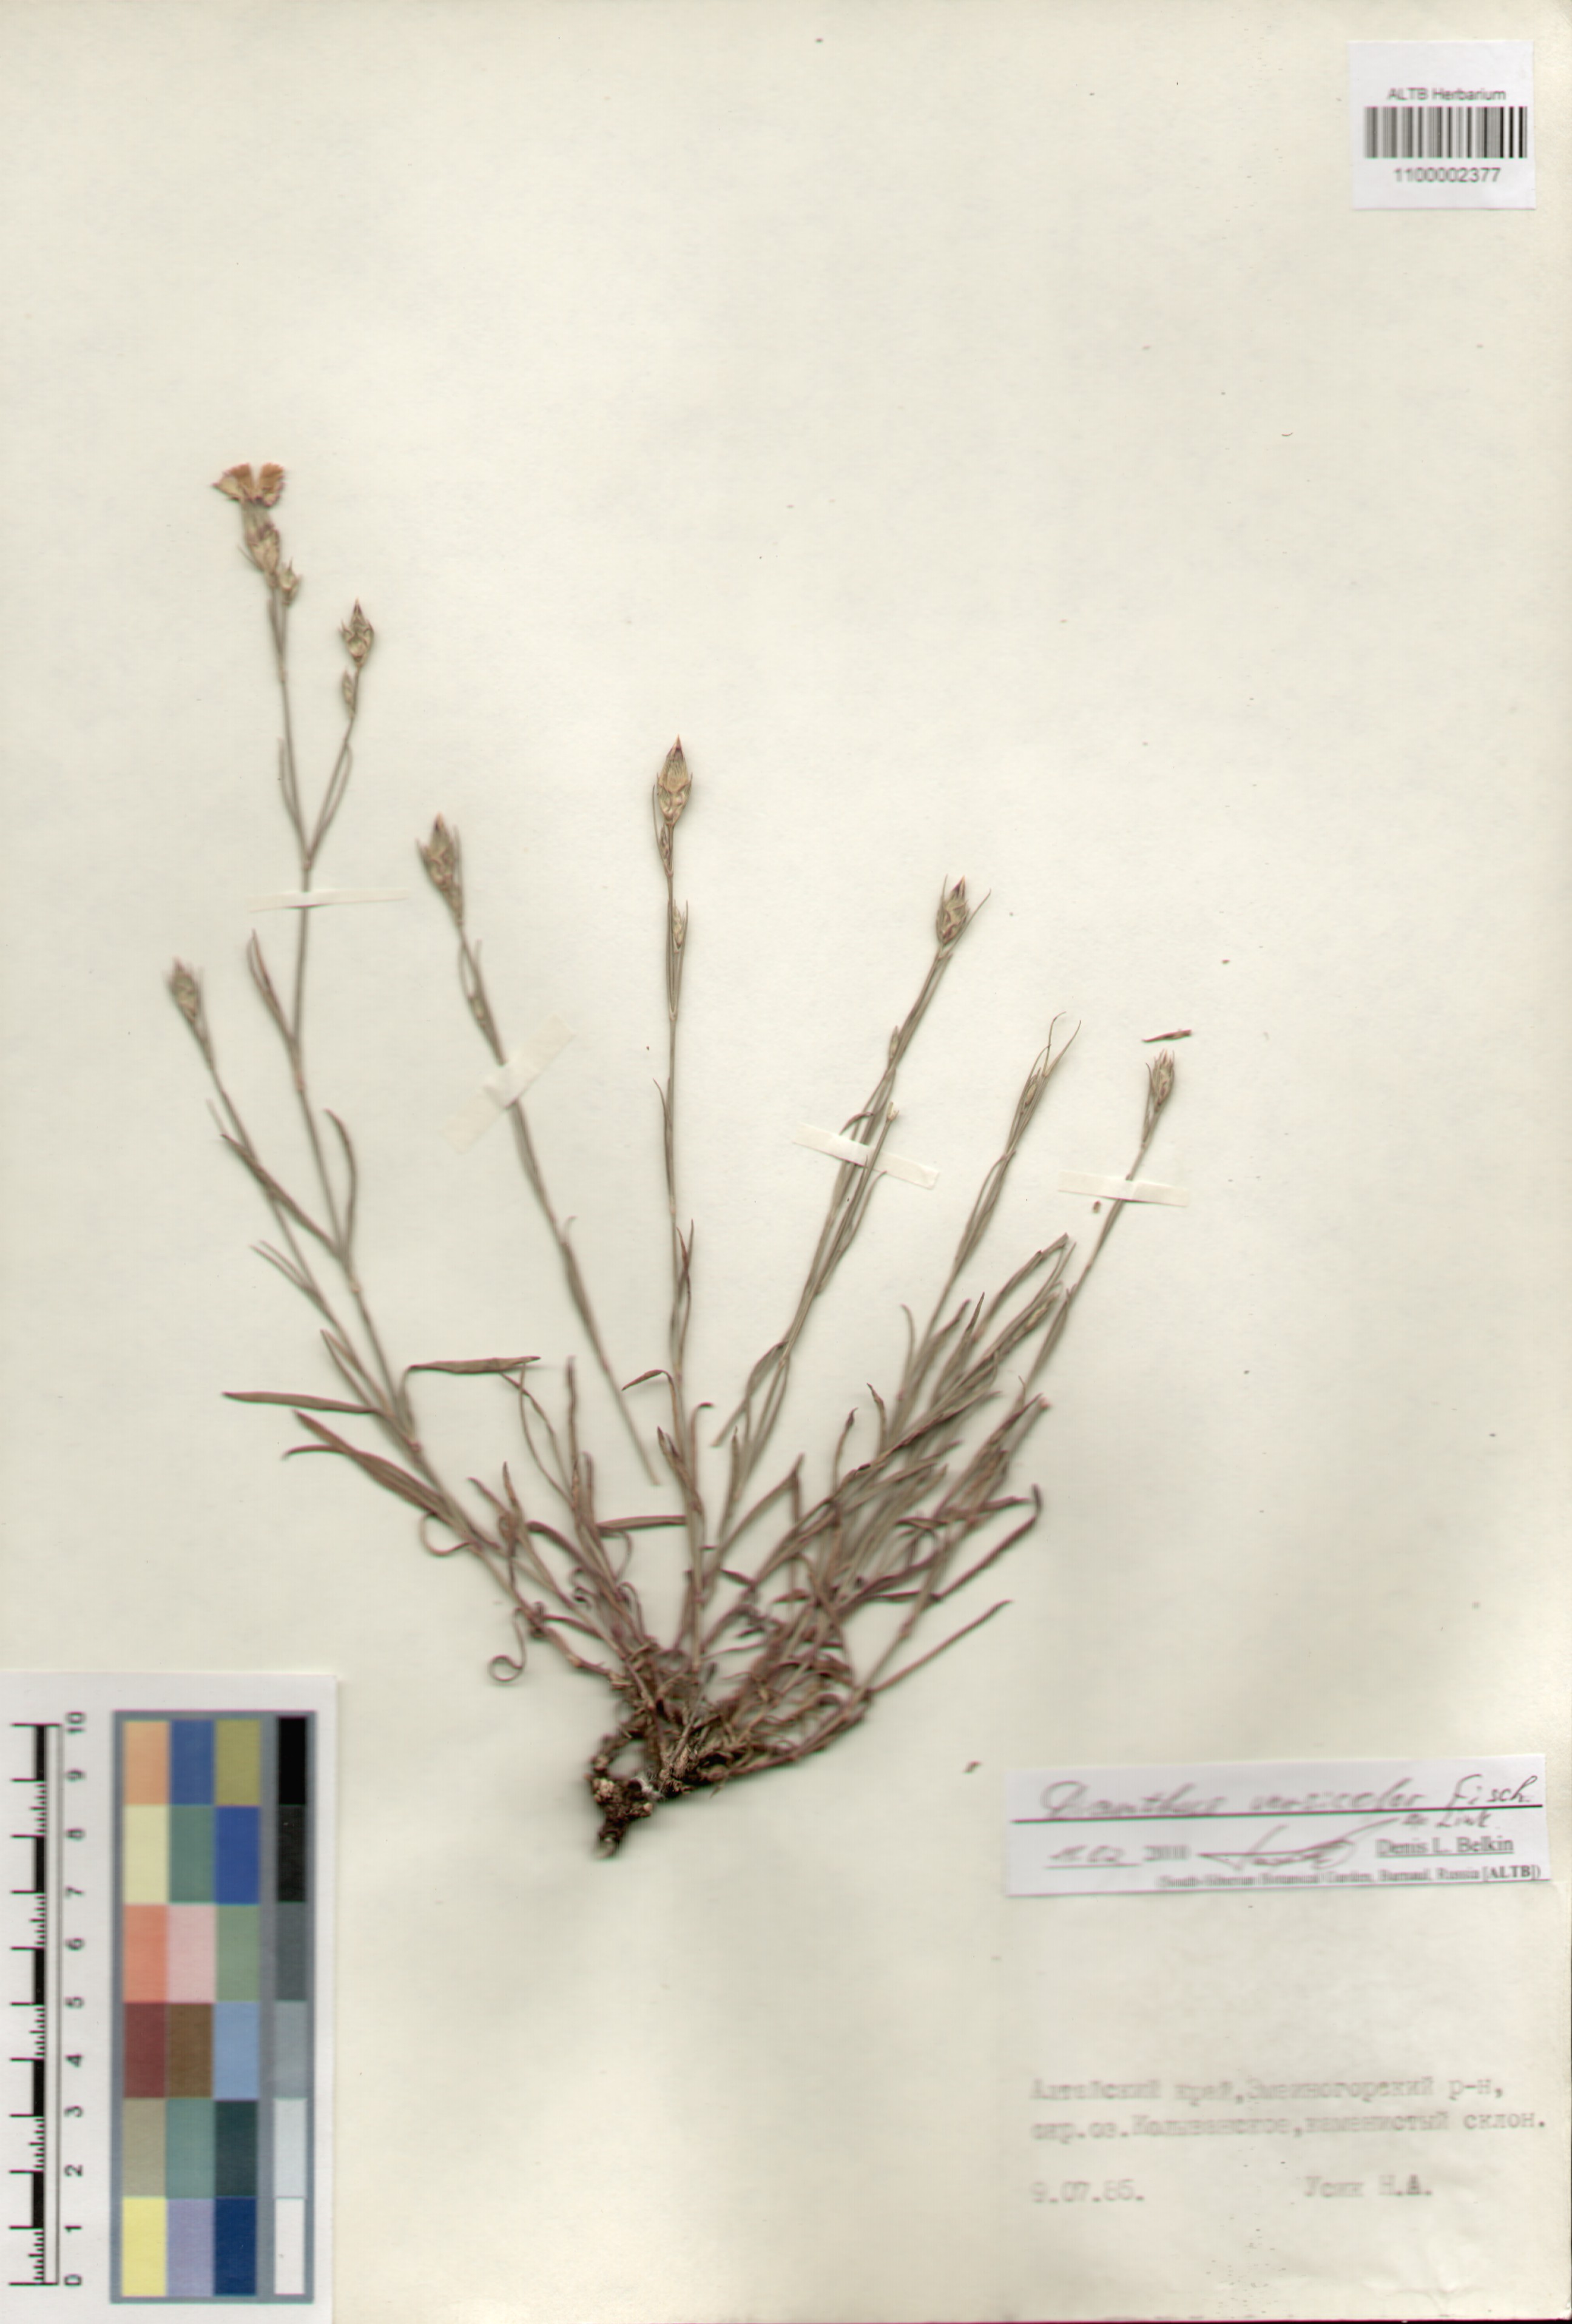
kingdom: Plantae
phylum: Tracheophyta
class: Magnoliopsida
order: Caryophyllales
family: Caryophyllaceae
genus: Dianthus
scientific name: Dianthus chinensis
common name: Rainbow pink
